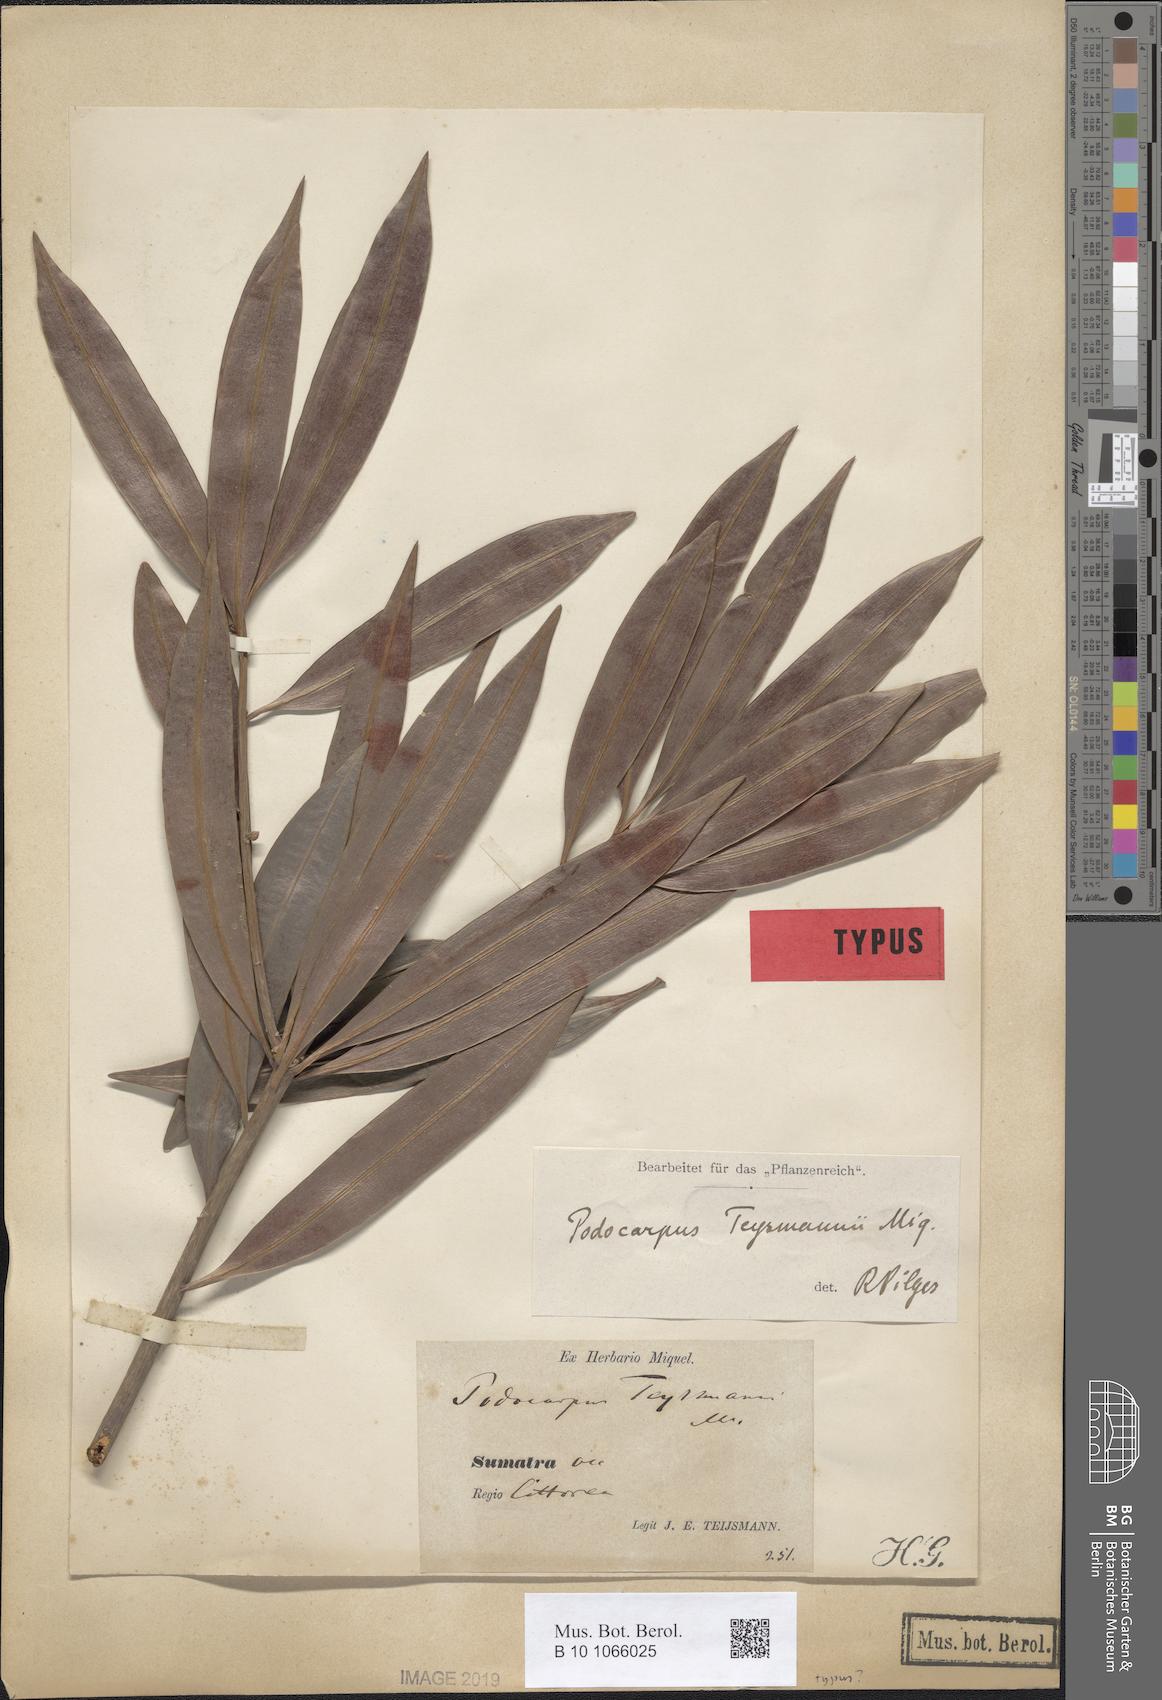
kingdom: Plantae
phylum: Tracheophyta
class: Pinopsida
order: Pinales
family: Podocarpaceae
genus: Podocarpus
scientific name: Podocarpus teysmannii
